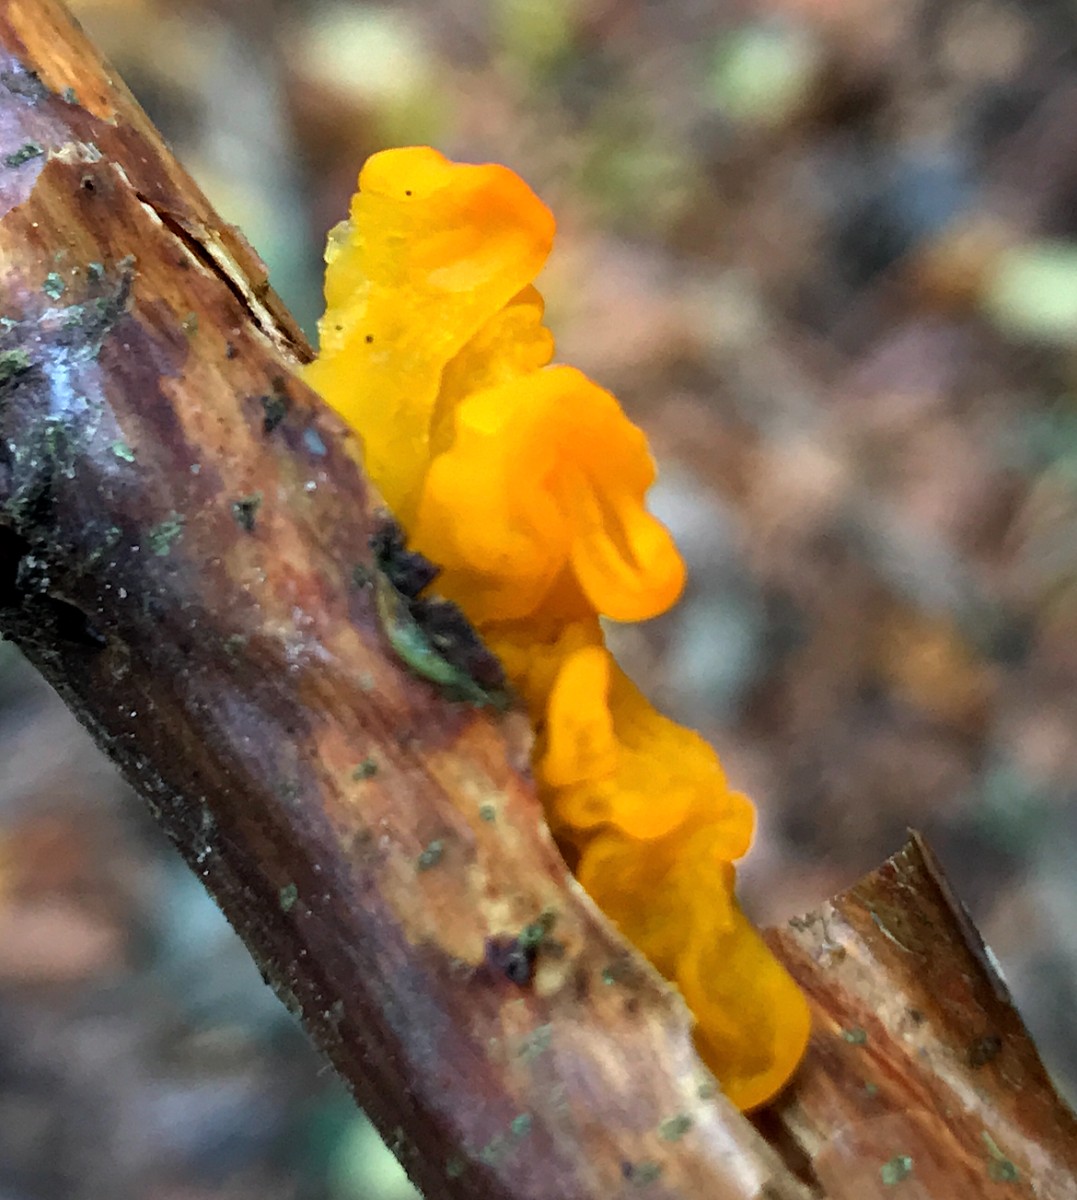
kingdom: Fungi
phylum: Basidiomycota
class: Tremellomycetes
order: Tremellales
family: Tremellaceae
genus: Tremella
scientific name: Tremella mesenterica
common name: gul bævresvamp
